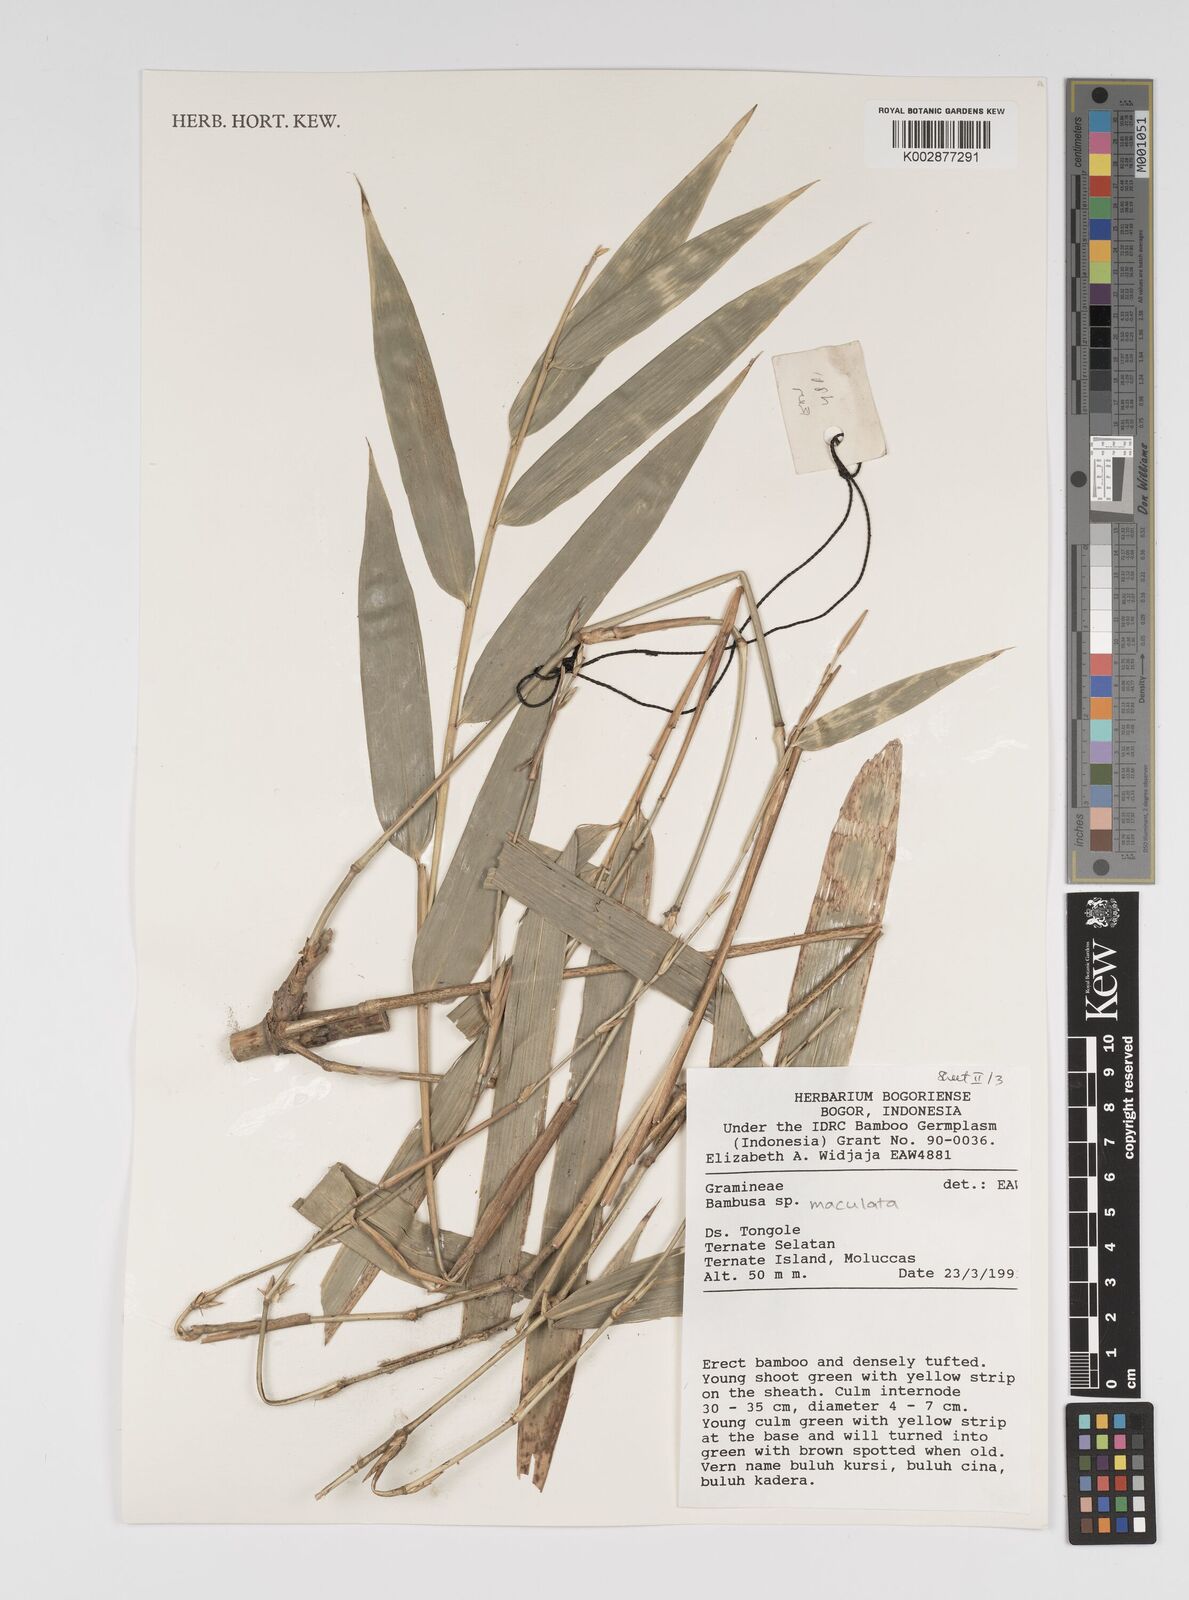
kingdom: Plantae
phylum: Tracheophyta
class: Liliopsida
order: Poales
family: Poaceae
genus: Bambusa
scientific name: Bambusa maculata
